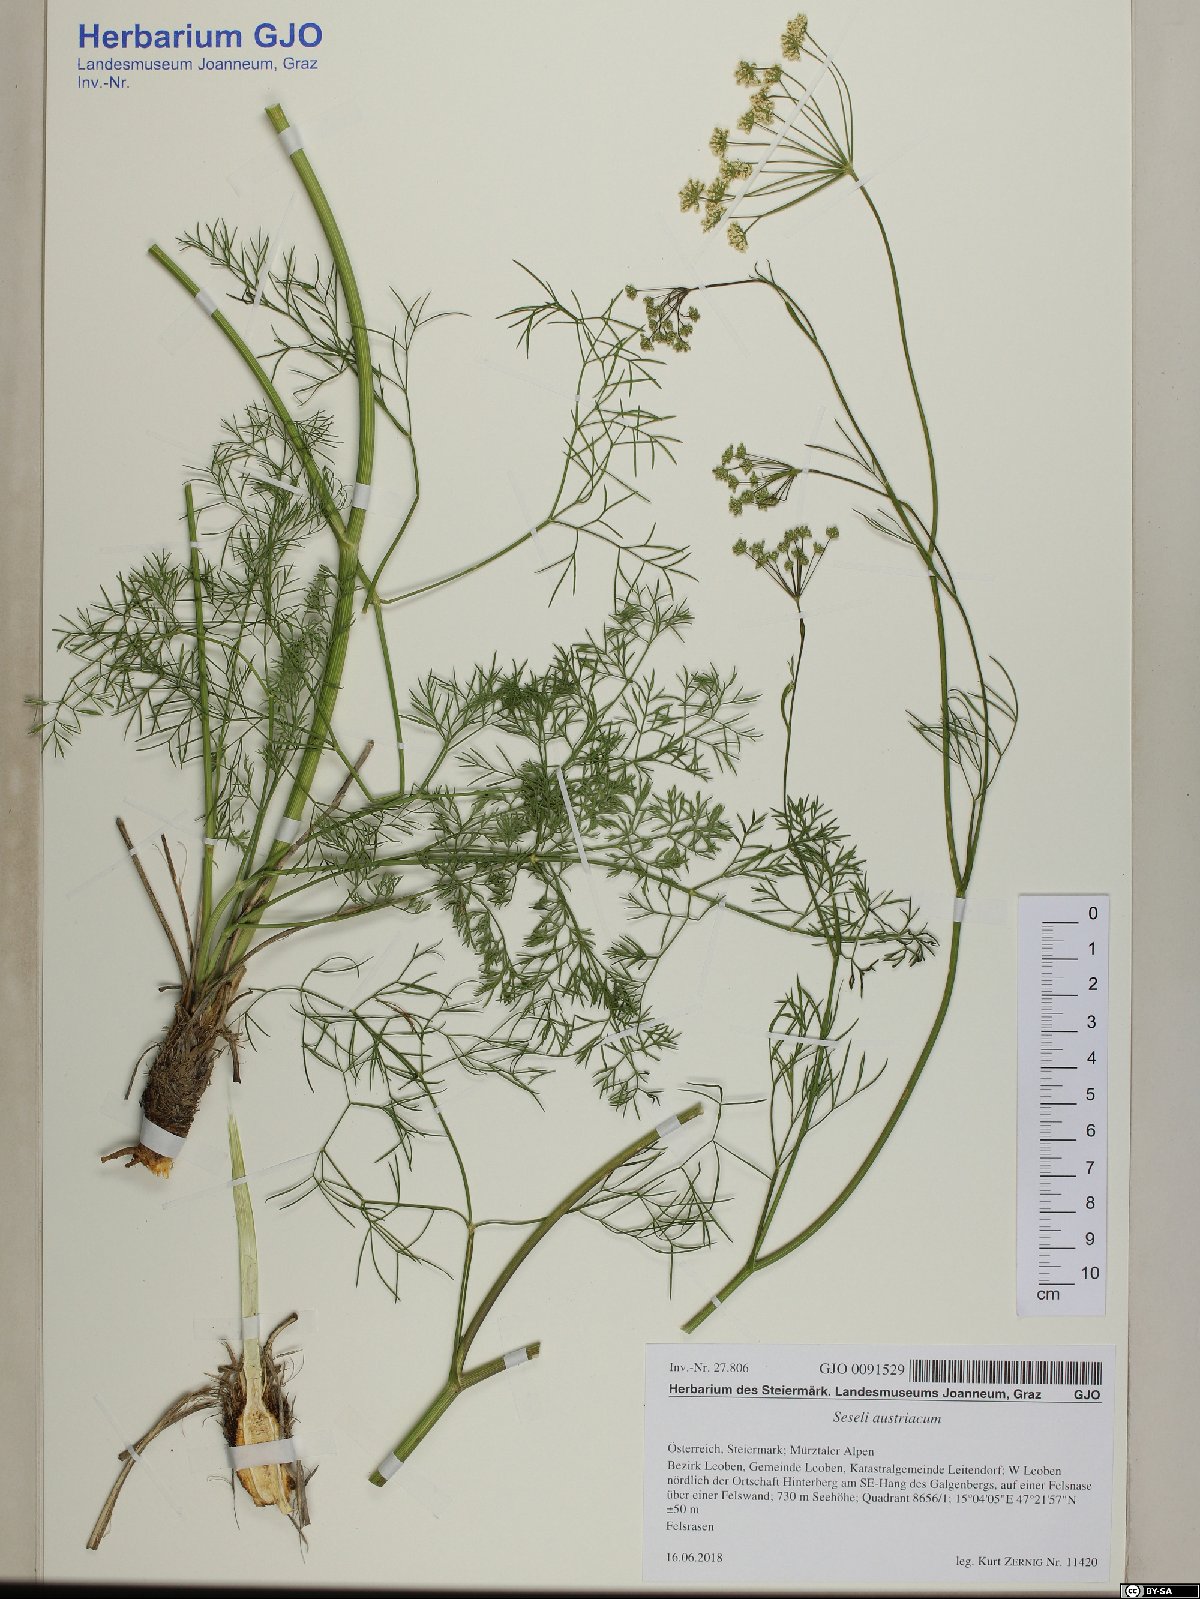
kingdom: Plantae
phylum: Tracheophyta
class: Magnoliopsida
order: Apiales
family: Apiaceae
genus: Seseli
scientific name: Seseli austriacum
